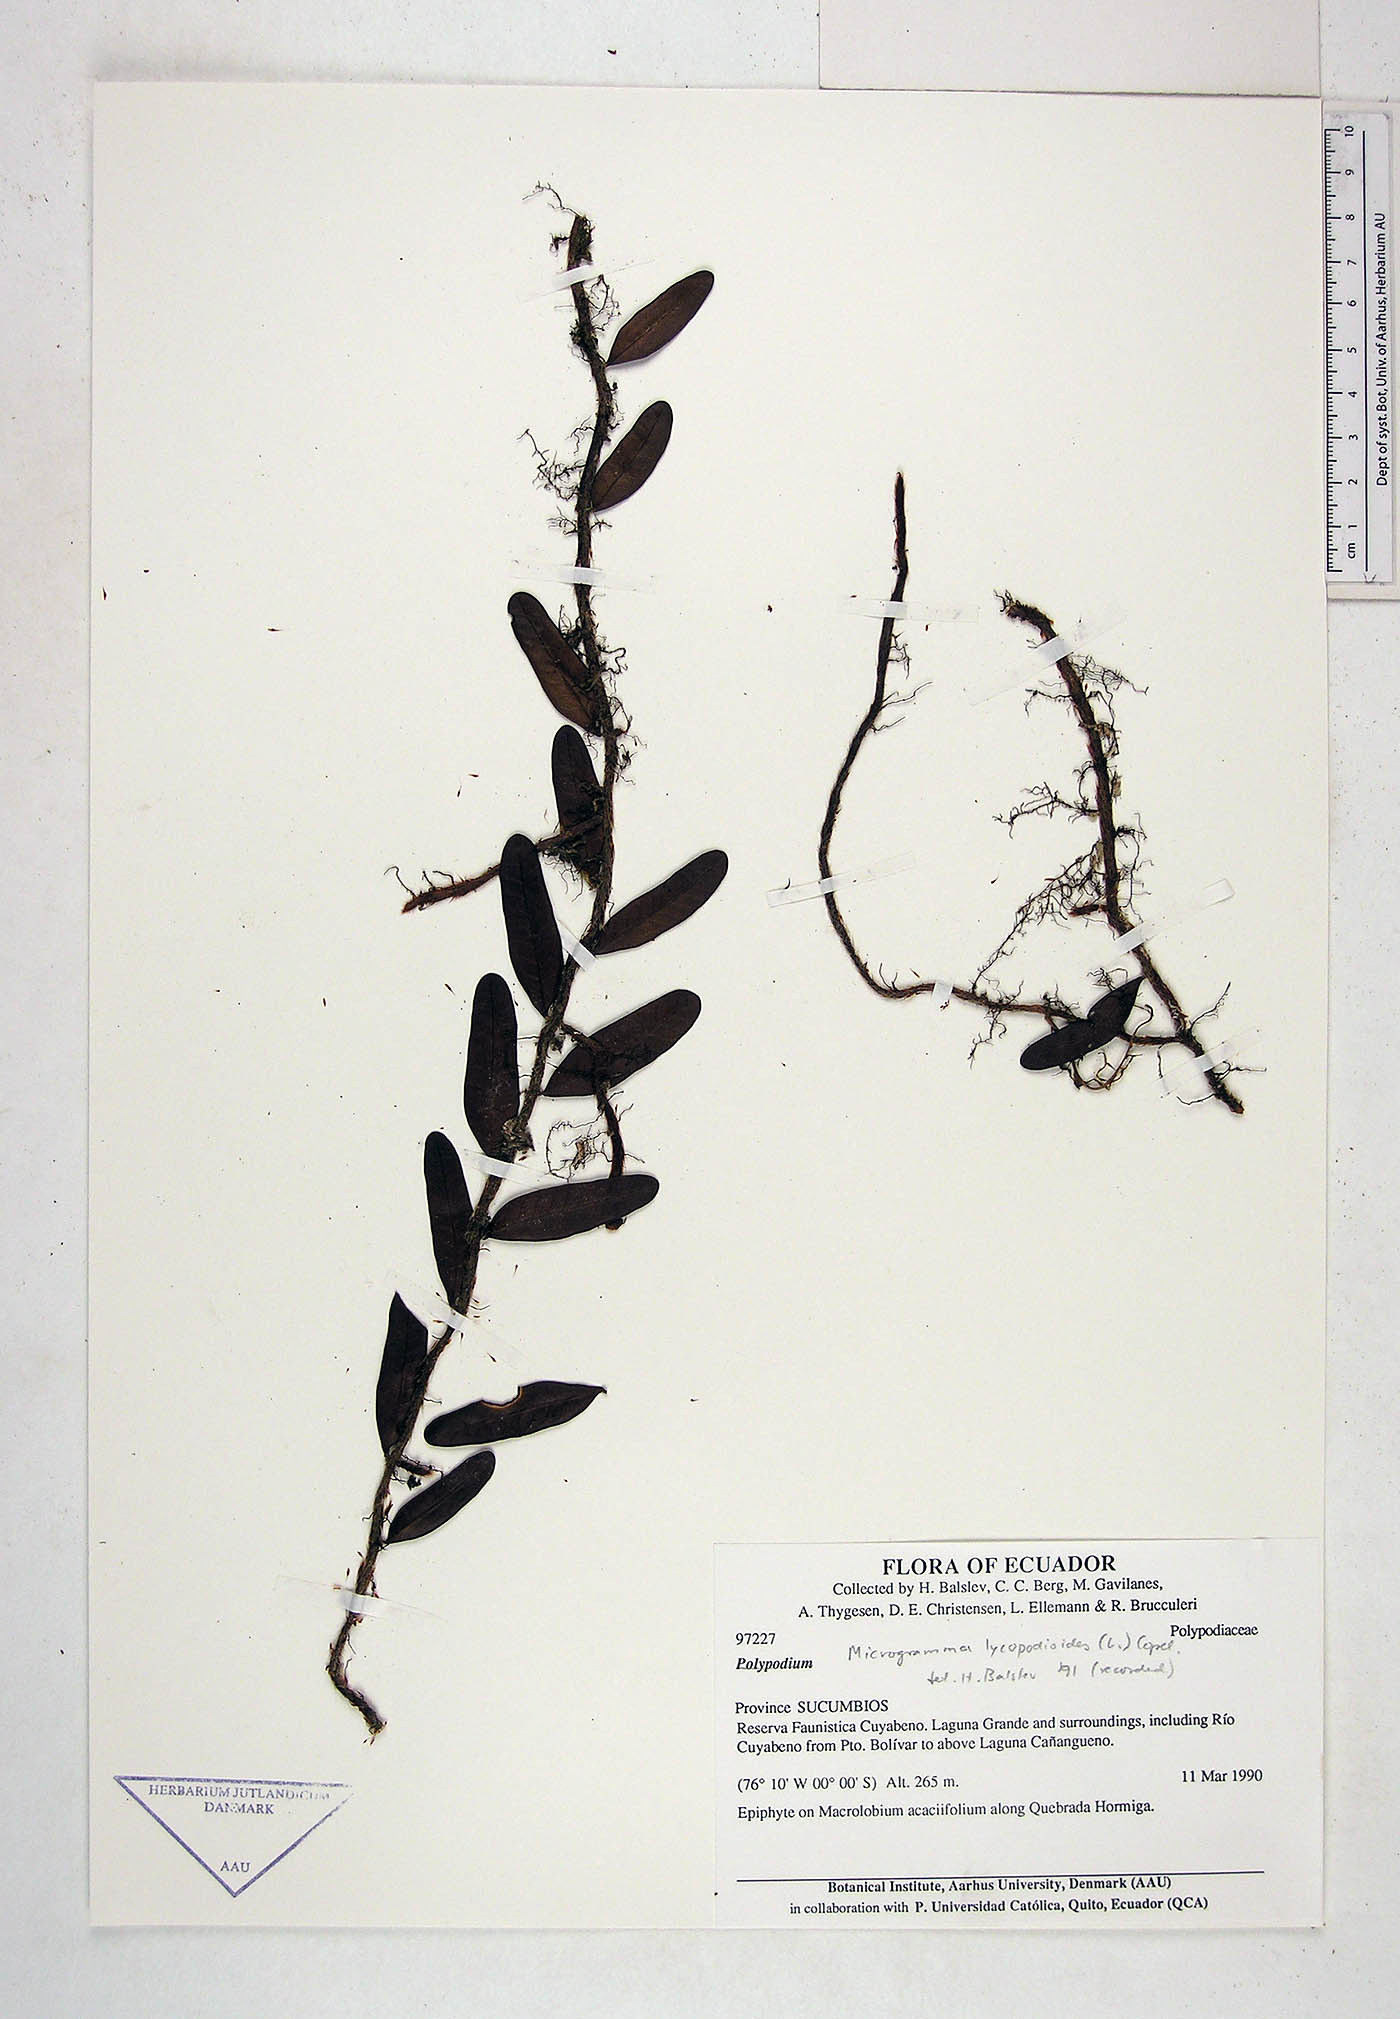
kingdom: Plantae
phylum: Tracheophyta
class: Polypodiopsida
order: Polypodiales
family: Polypodiaceae
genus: Microgramma
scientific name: Microgramma lycopodioides
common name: Bastard catclaw
